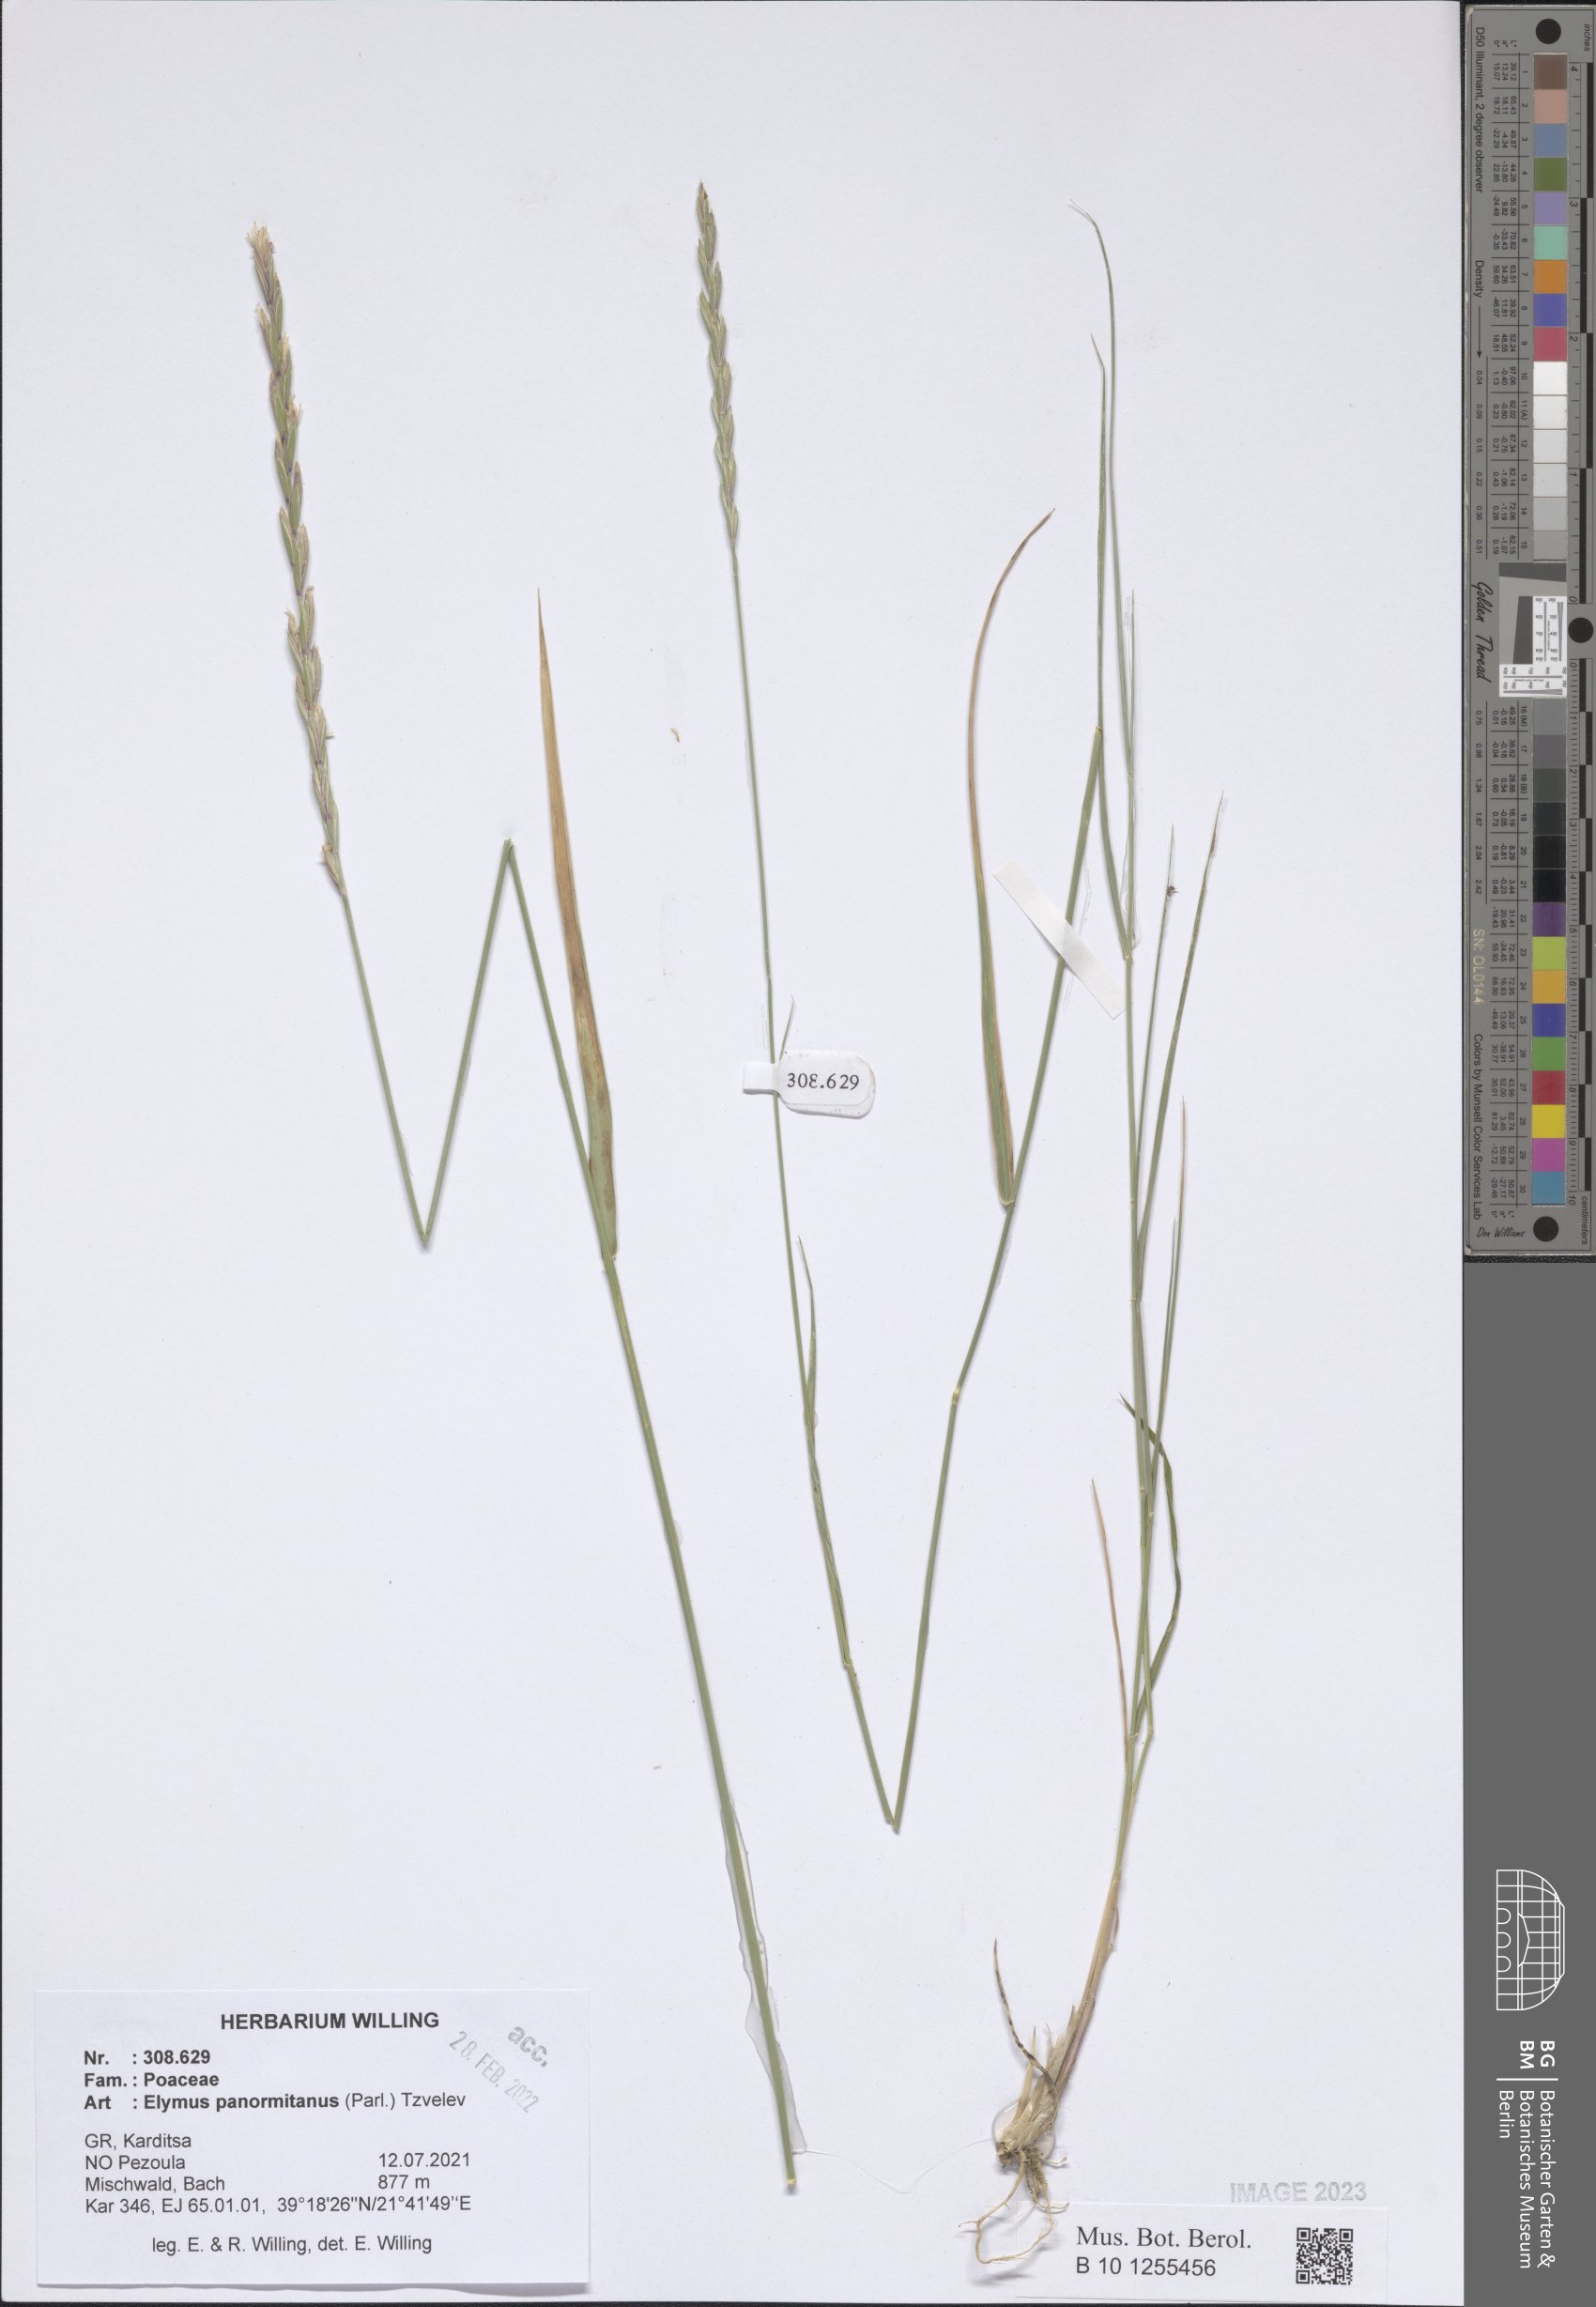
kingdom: Plantae
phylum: Tracheophyta
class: Liliopsida
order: Poales
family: Poaceae
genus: Elymus
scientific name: Elymus panormitanus
